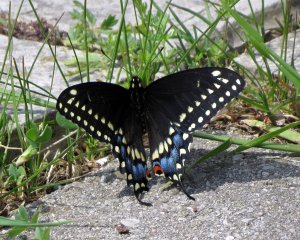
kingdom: Animalia
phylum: Arthropoda
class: Insecta
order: Lepidoptera
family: Papilionidae
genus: Papilio
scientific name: Papilio polyxenes
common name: Black Swallowtail
